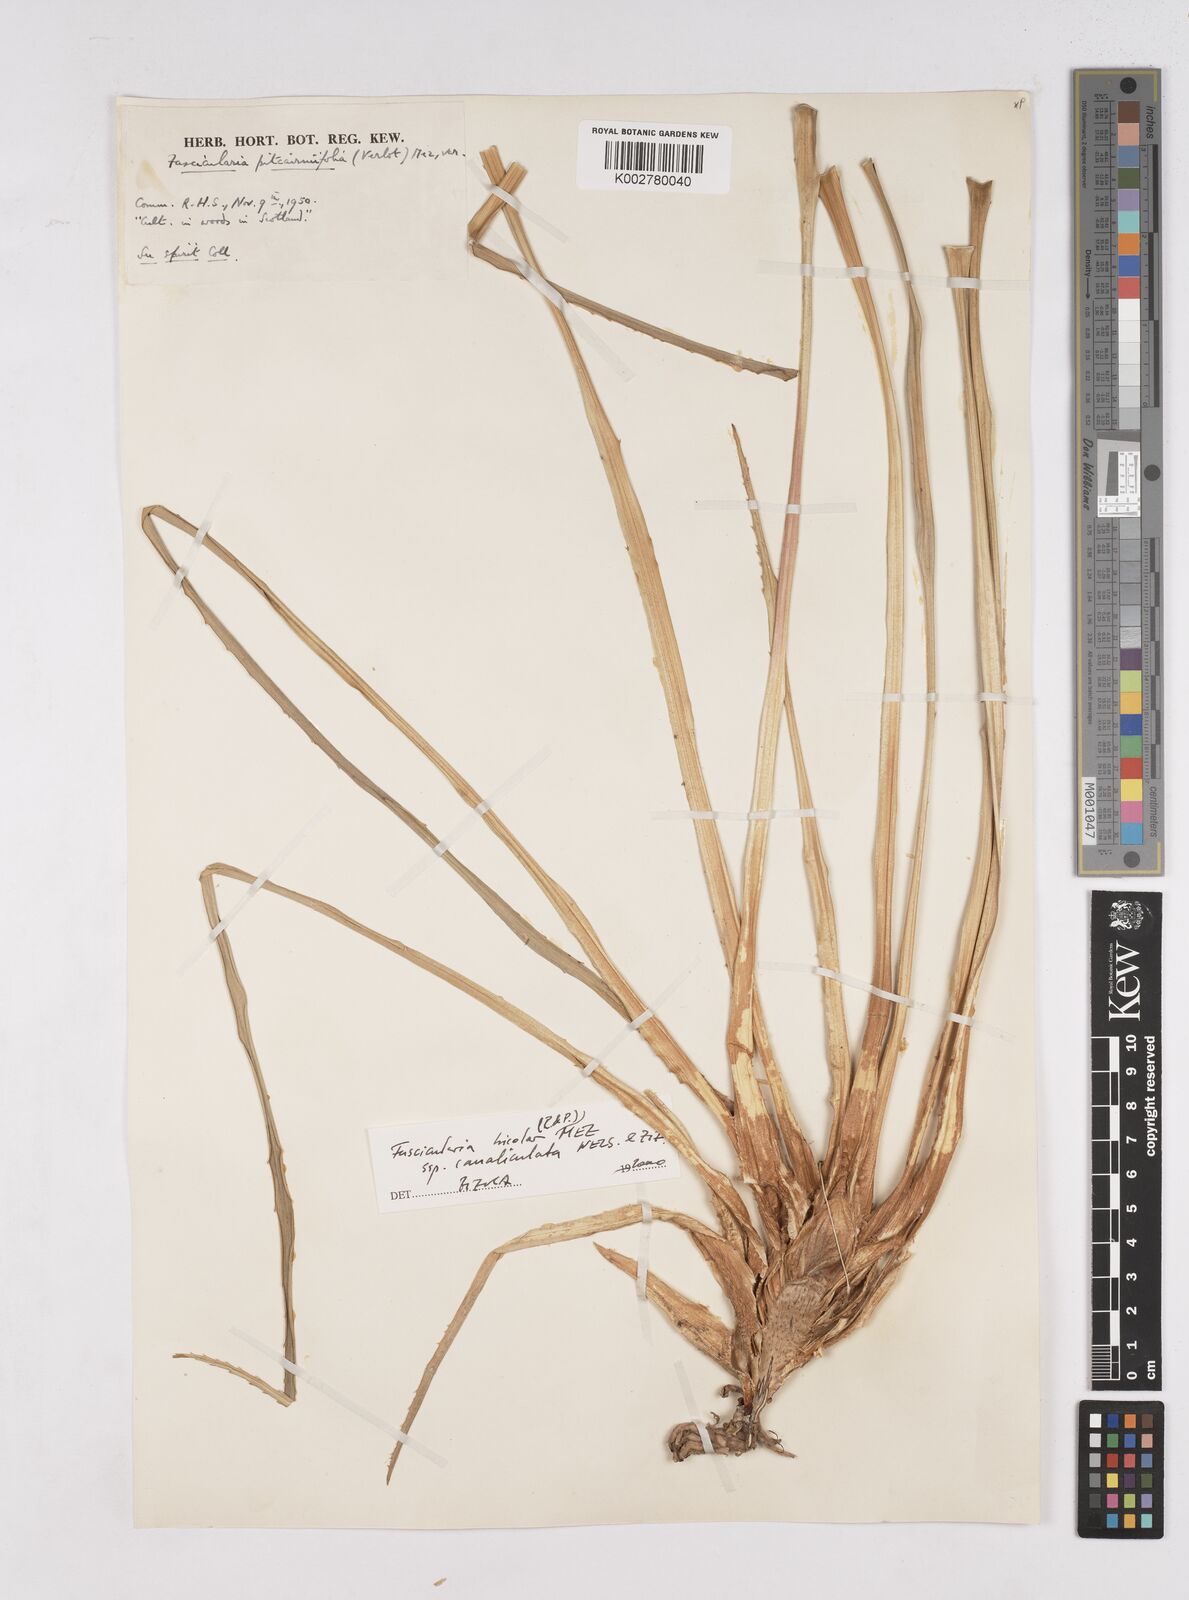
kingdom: Plantae
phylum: Tracheophyta
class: Liliopsida
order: Poales
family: Bromeliaceae
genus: Hechtia
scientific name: Hechtia pitcairniifolia
